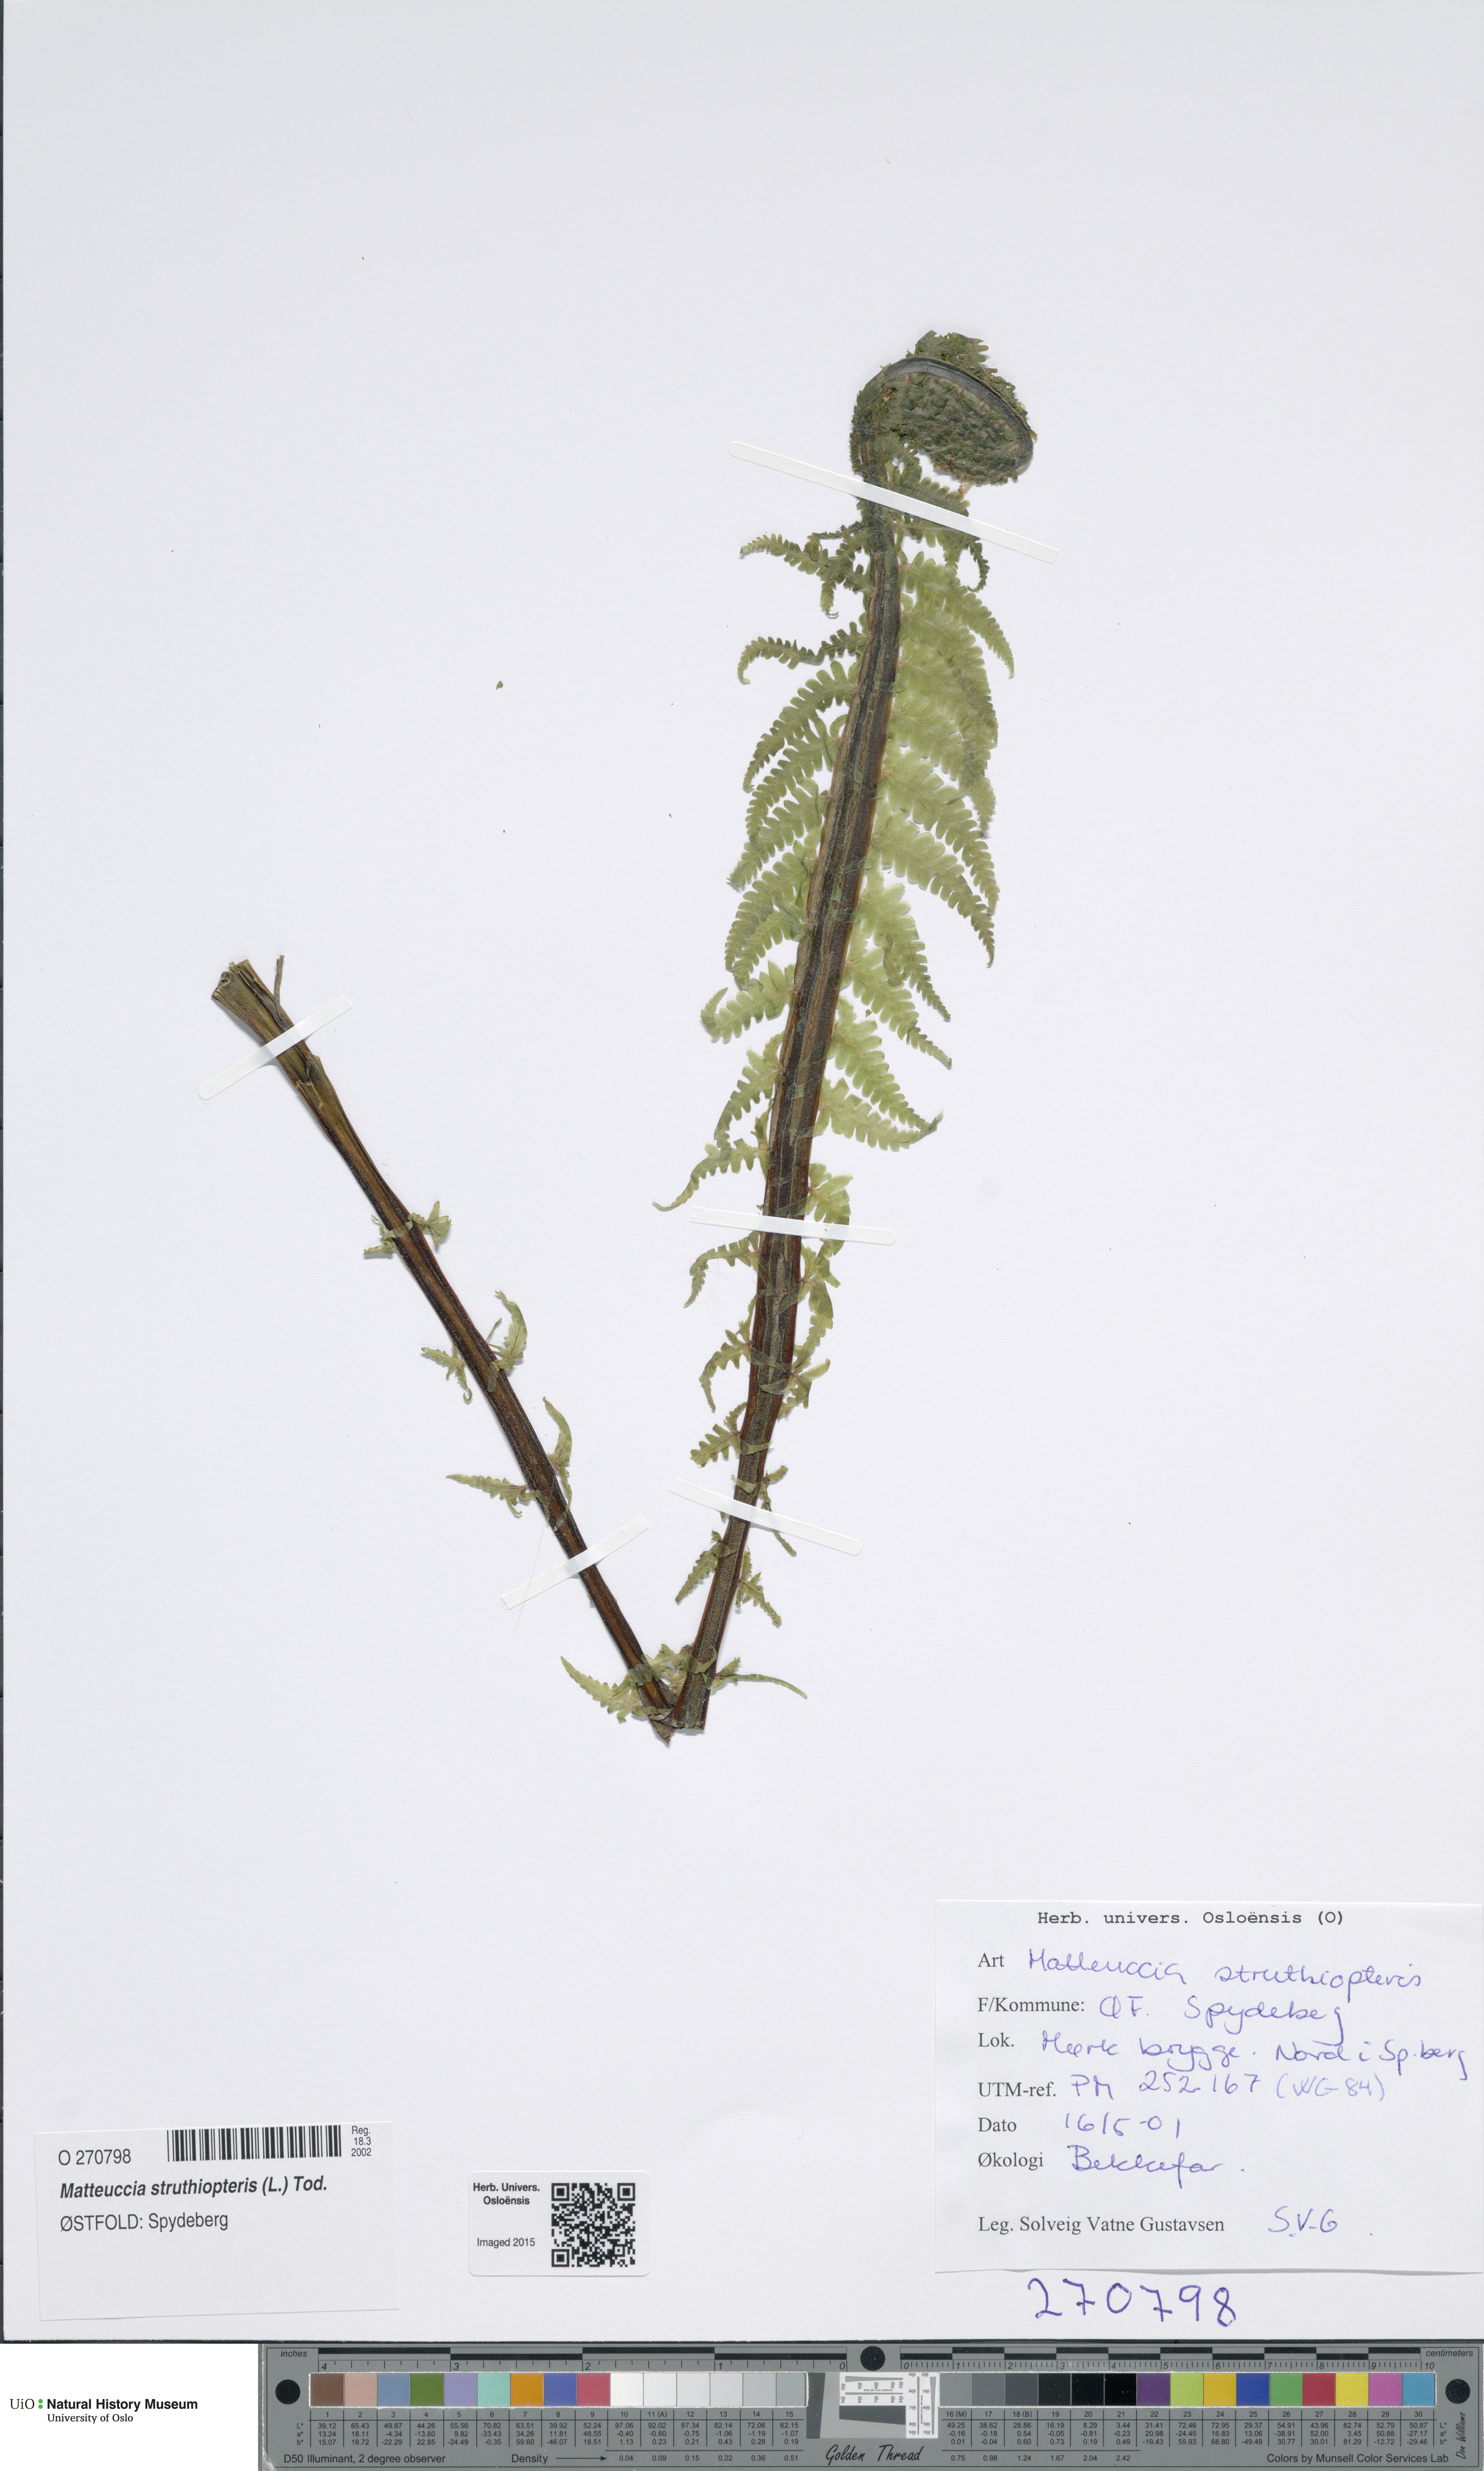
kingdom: Plantae
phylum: Tracheophyta
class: Polypodiopsida
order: Polypodiales
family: Onocleaceae
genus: Matteuccia
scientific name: Matteuccia struthiopteris
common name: Ostrich fern
